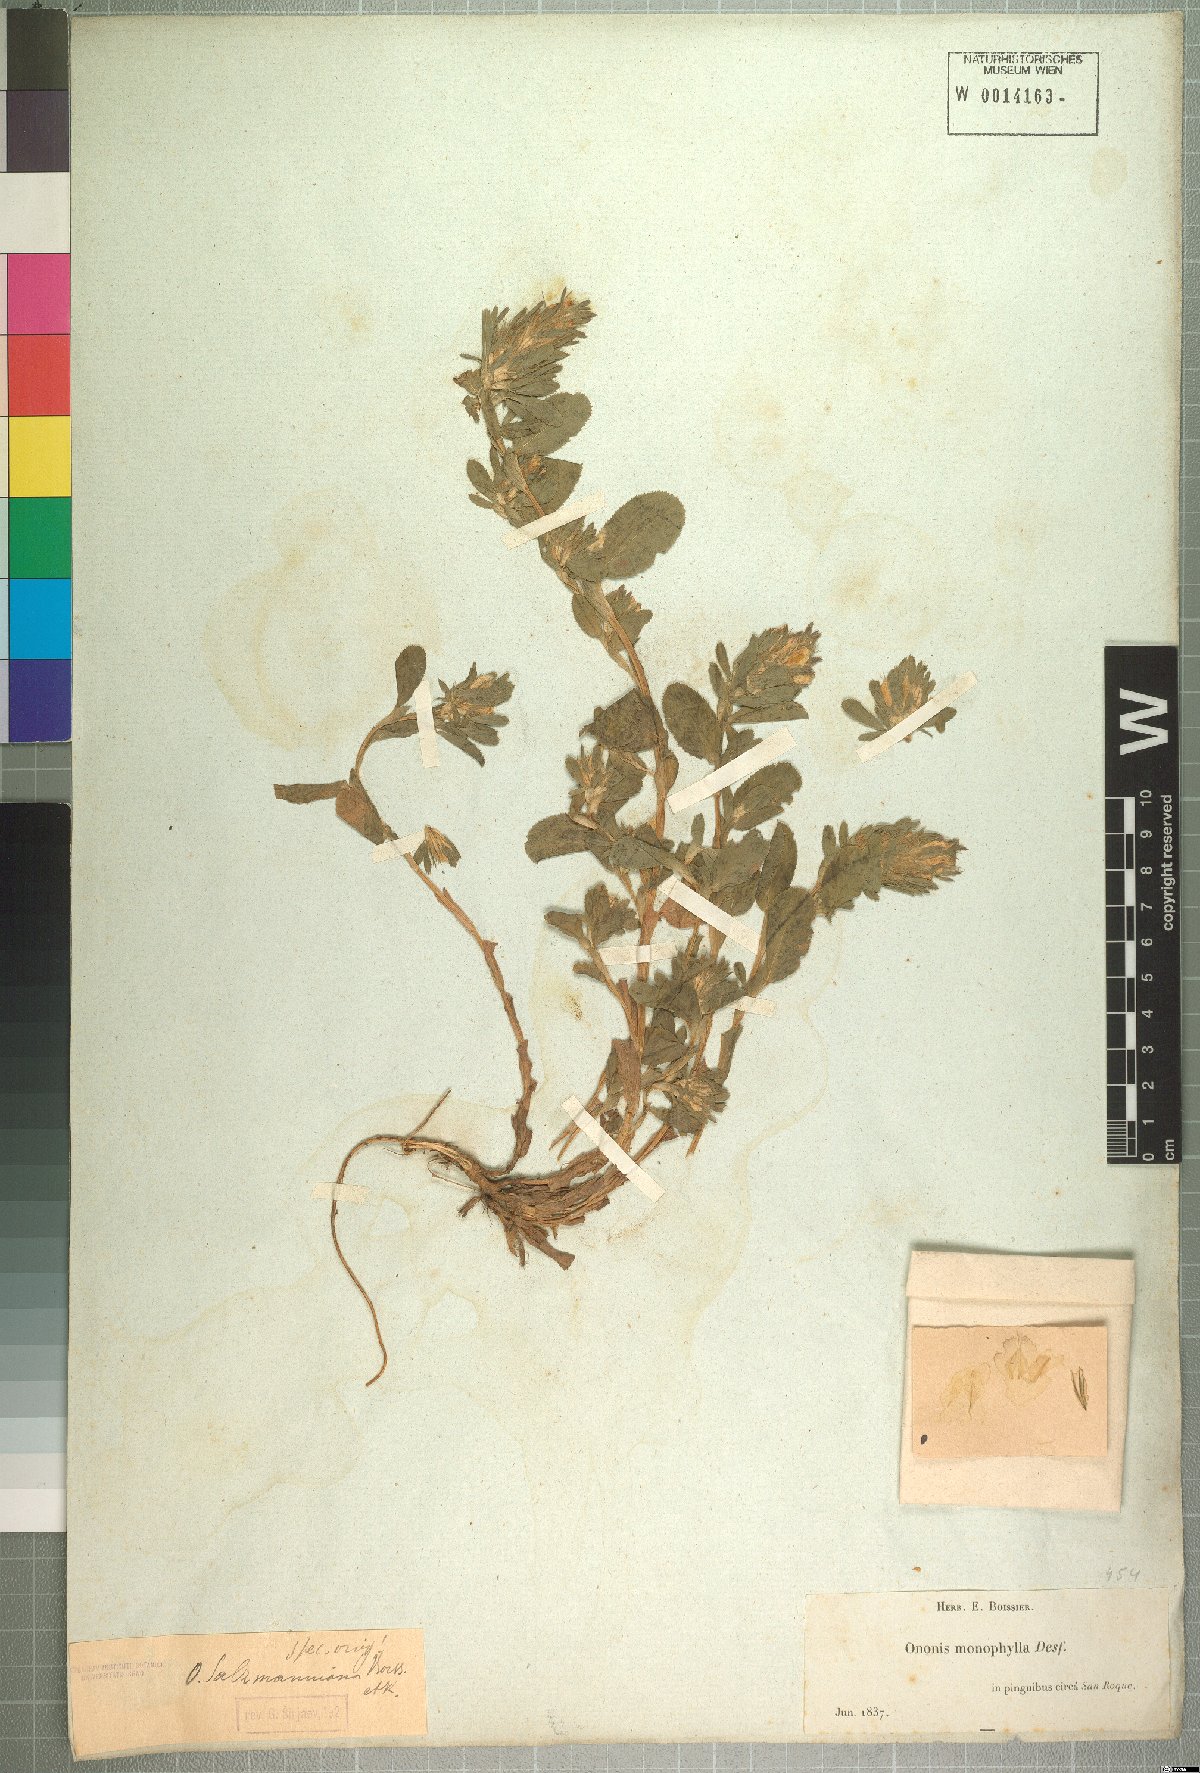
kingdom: Plantae
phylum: Tracheophyta
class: Magnoliopsida
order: Fabales
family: Fabaceae
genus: Ononis
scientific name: Ononis alopecuroides
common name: Salzmann's restharrow
